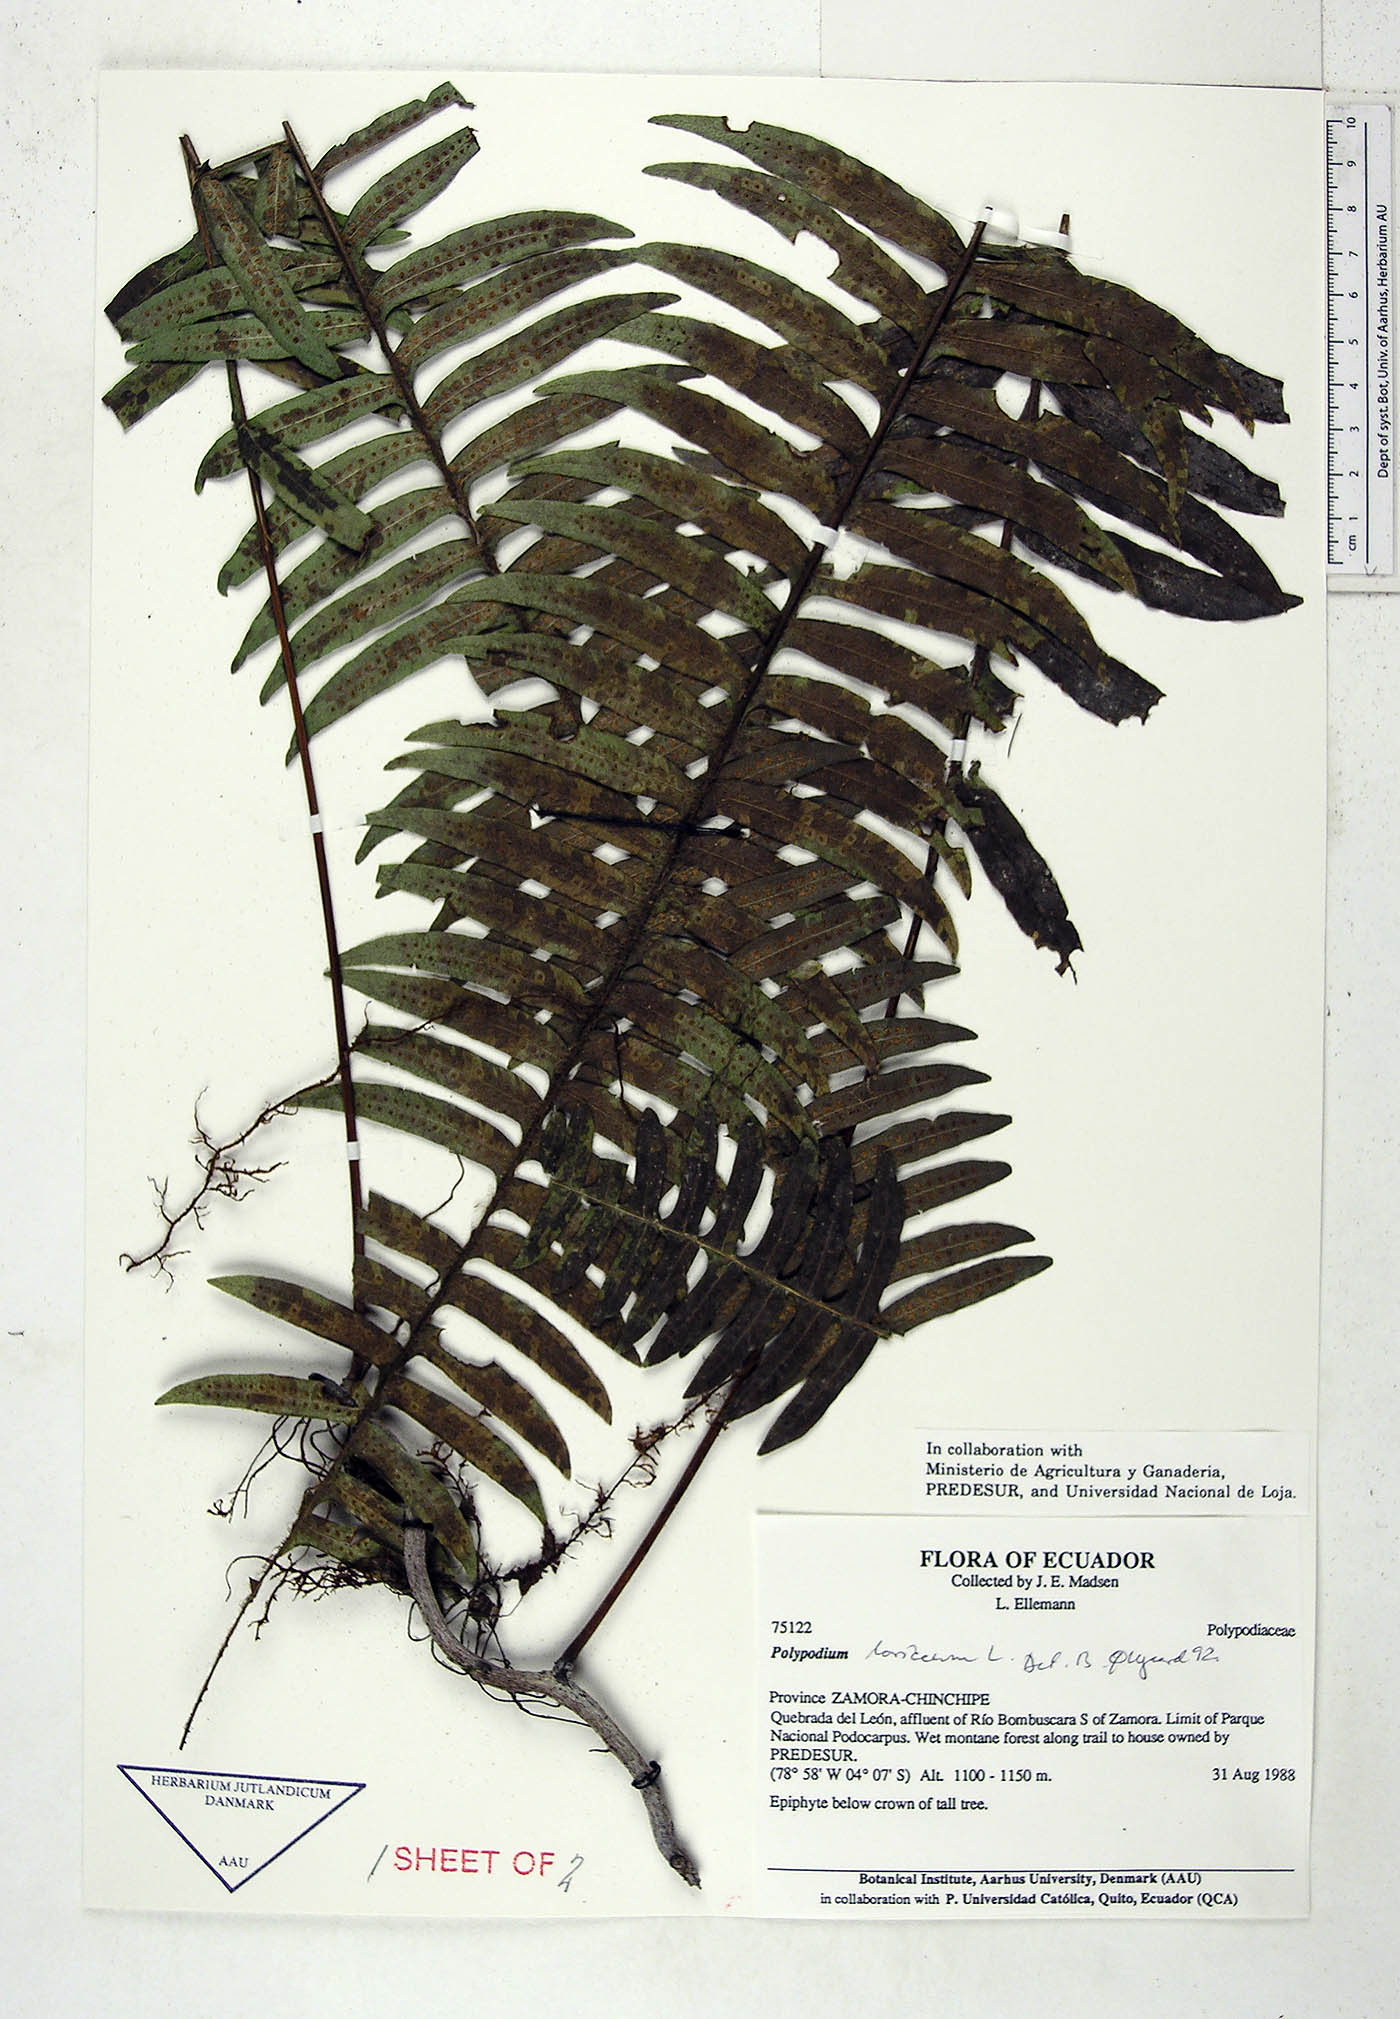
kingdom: Plantae
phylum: Tracheophyta
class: Polypodiopsida
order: Polypodiales
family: Polypodiaceae
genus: Serpocaulon
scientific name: Serpocaulon loriceum
